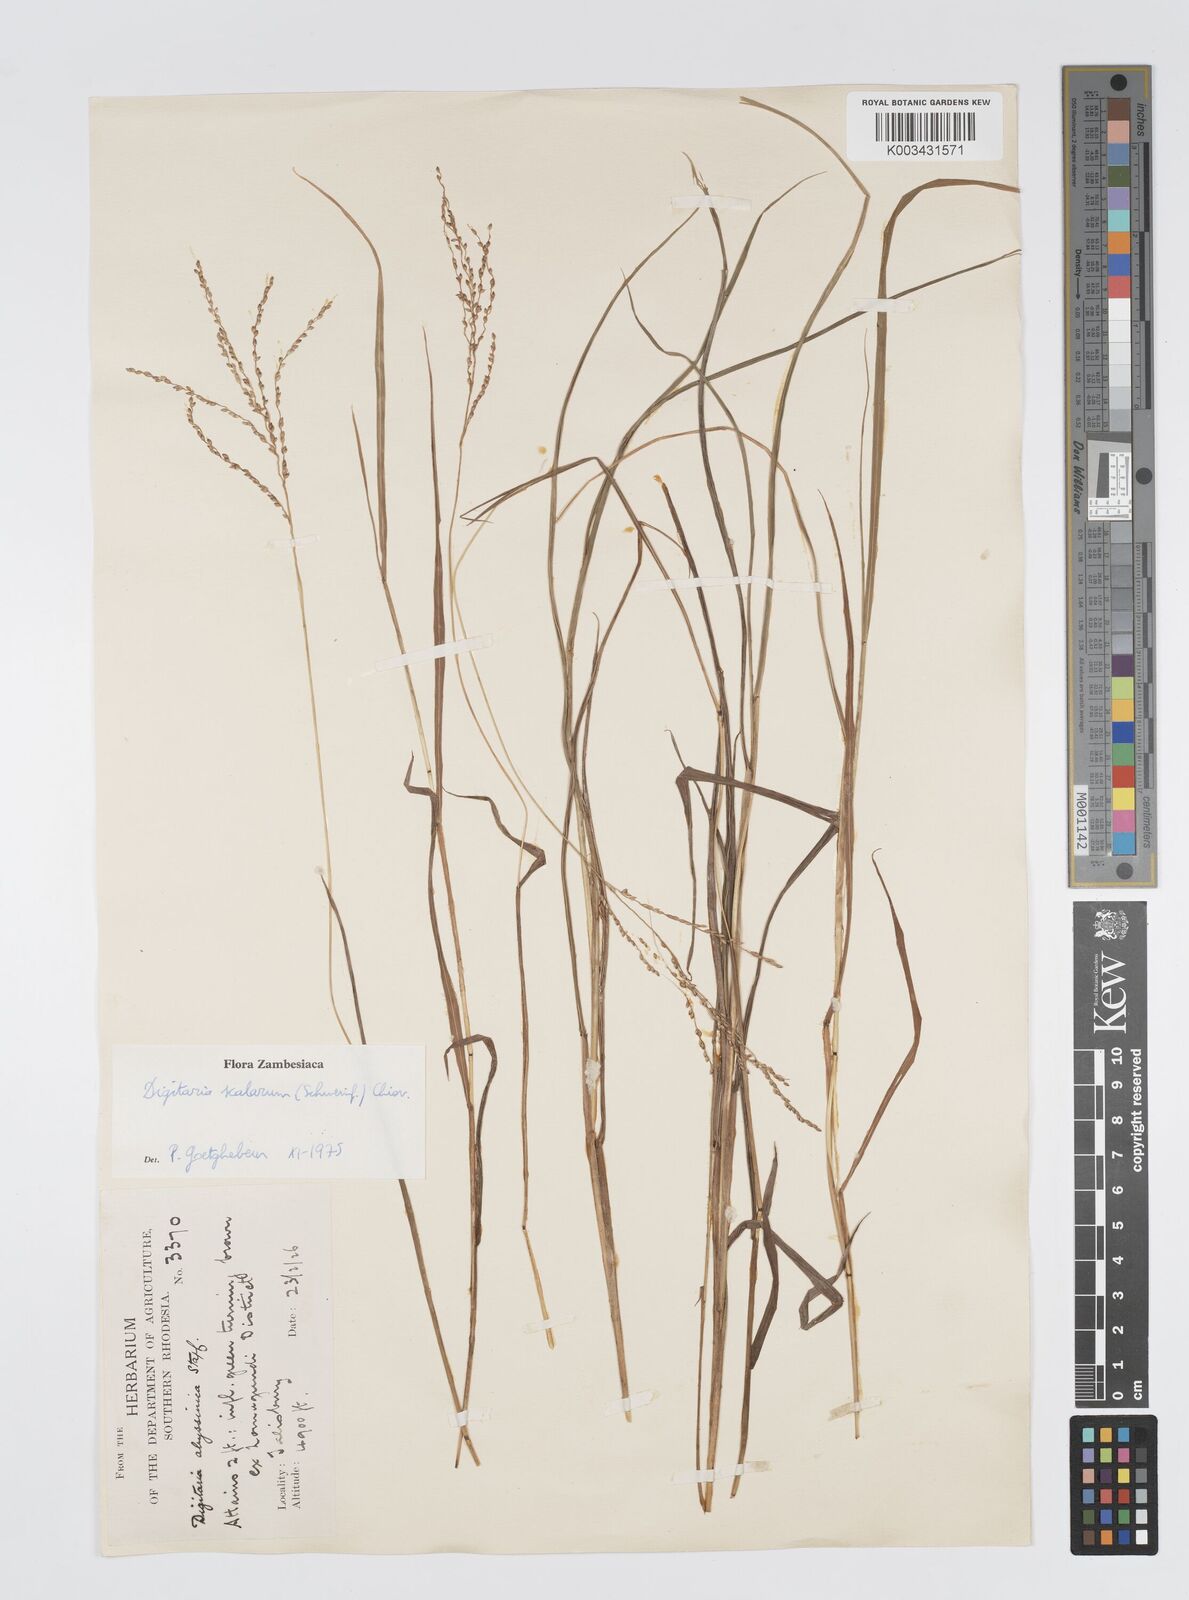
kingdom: Plantae
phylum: Tracheophyta
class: Liliopsida
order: Poales
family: Poaceae
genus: Digitaria
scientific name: Digitaria abyssinica
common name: African couchgrass
